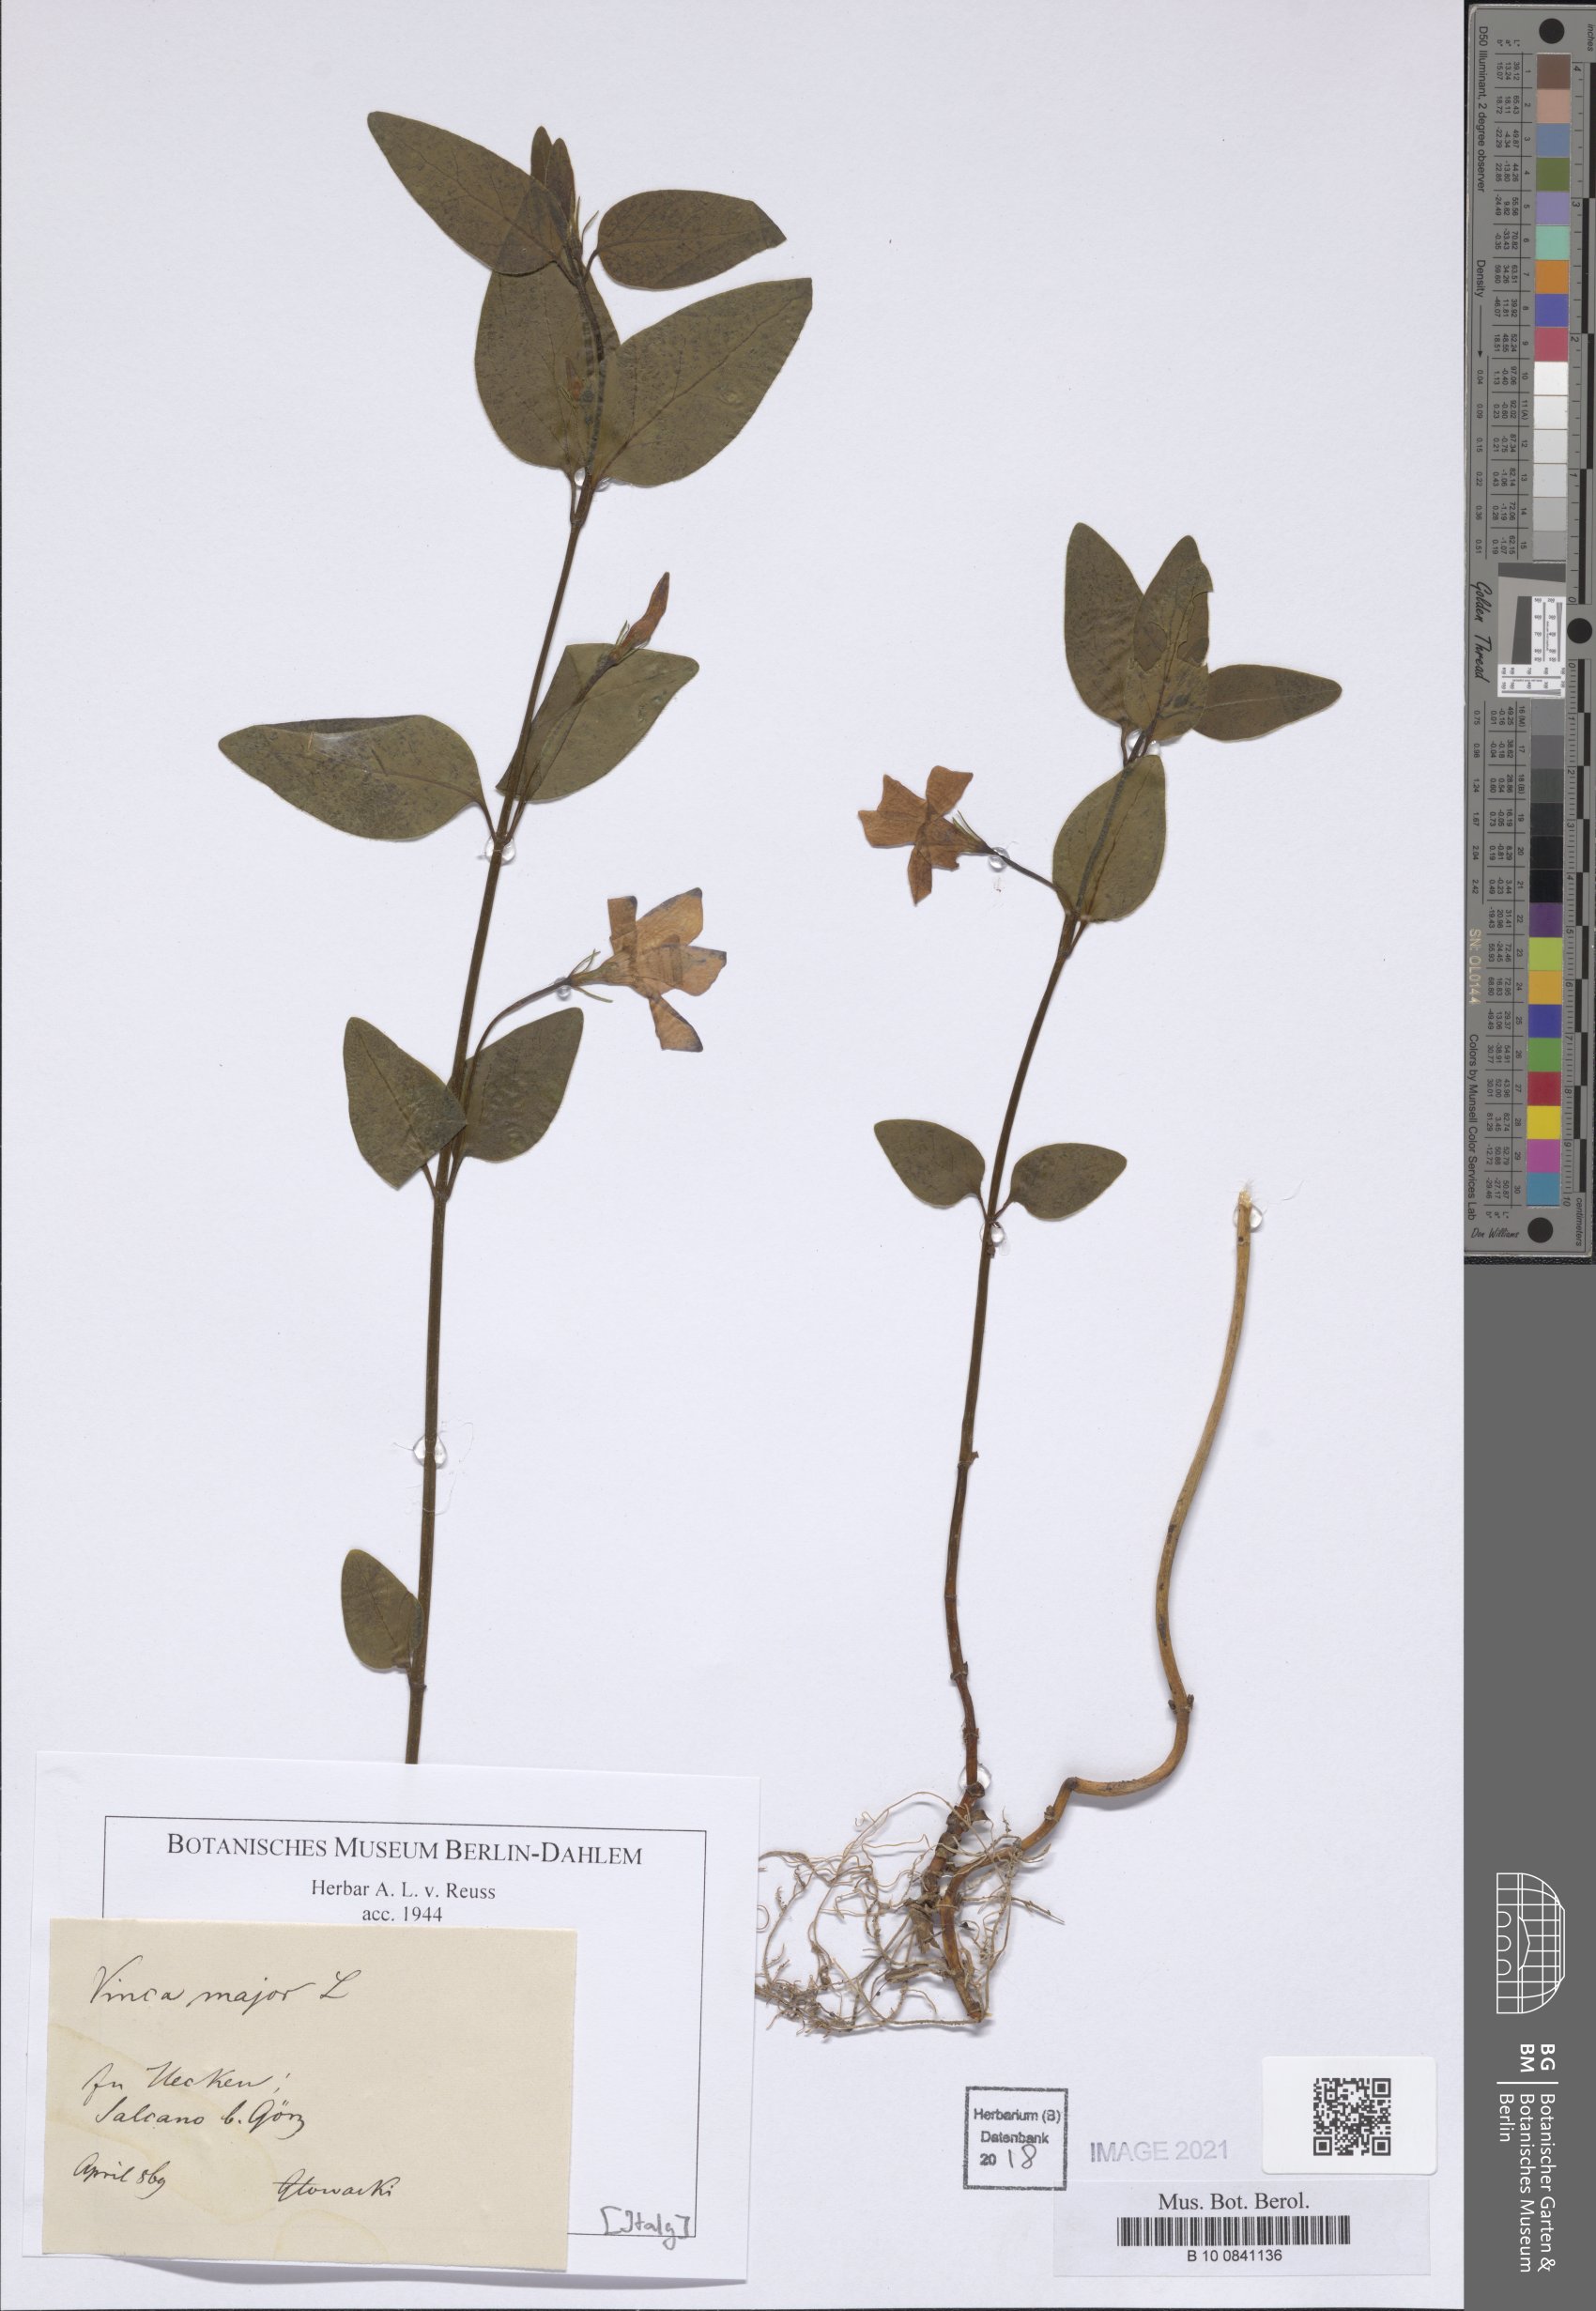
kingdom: Plantae
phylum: Tracheophyta
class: Magnoliopsida
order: Gentianales
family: Apocynaceae
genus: Vinca
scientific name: Vinca major
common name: Greater periwinkle
